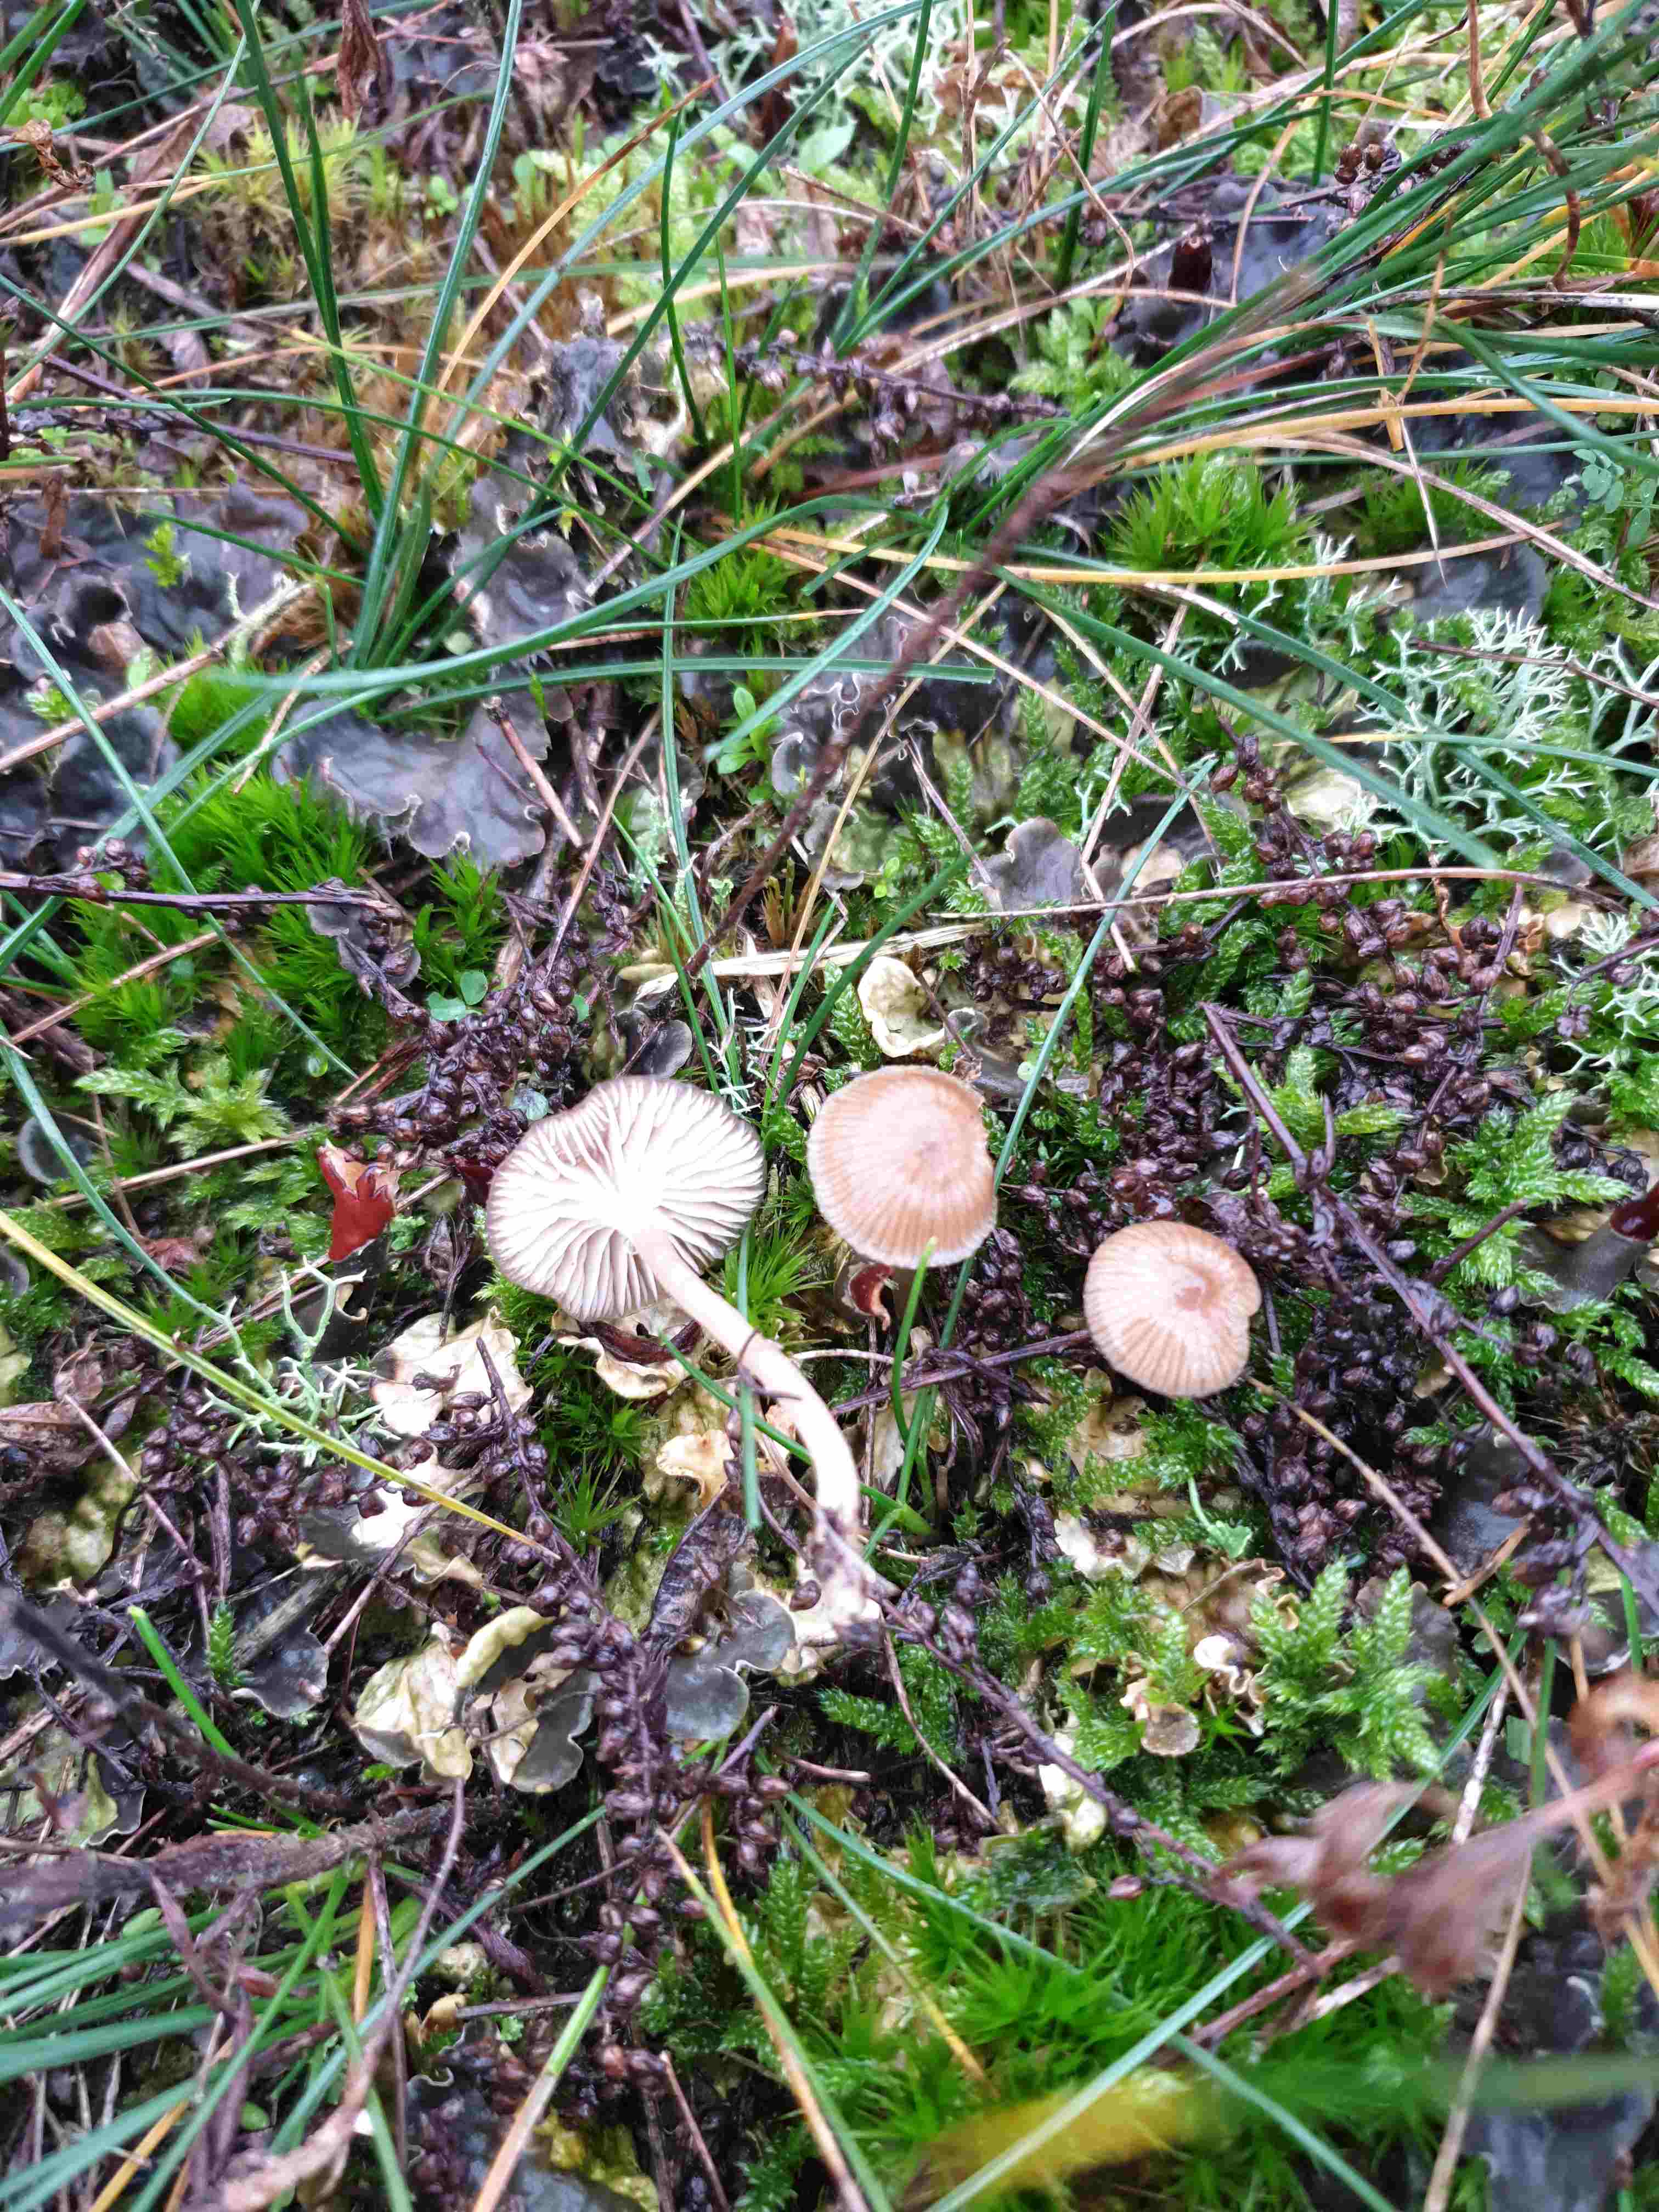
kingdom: Fungi
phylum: Basidiomycota
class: Agaricomycetes
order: Agaricales
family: Tricholomataceae
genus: Gamundia
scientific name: Gamundia xerophila
